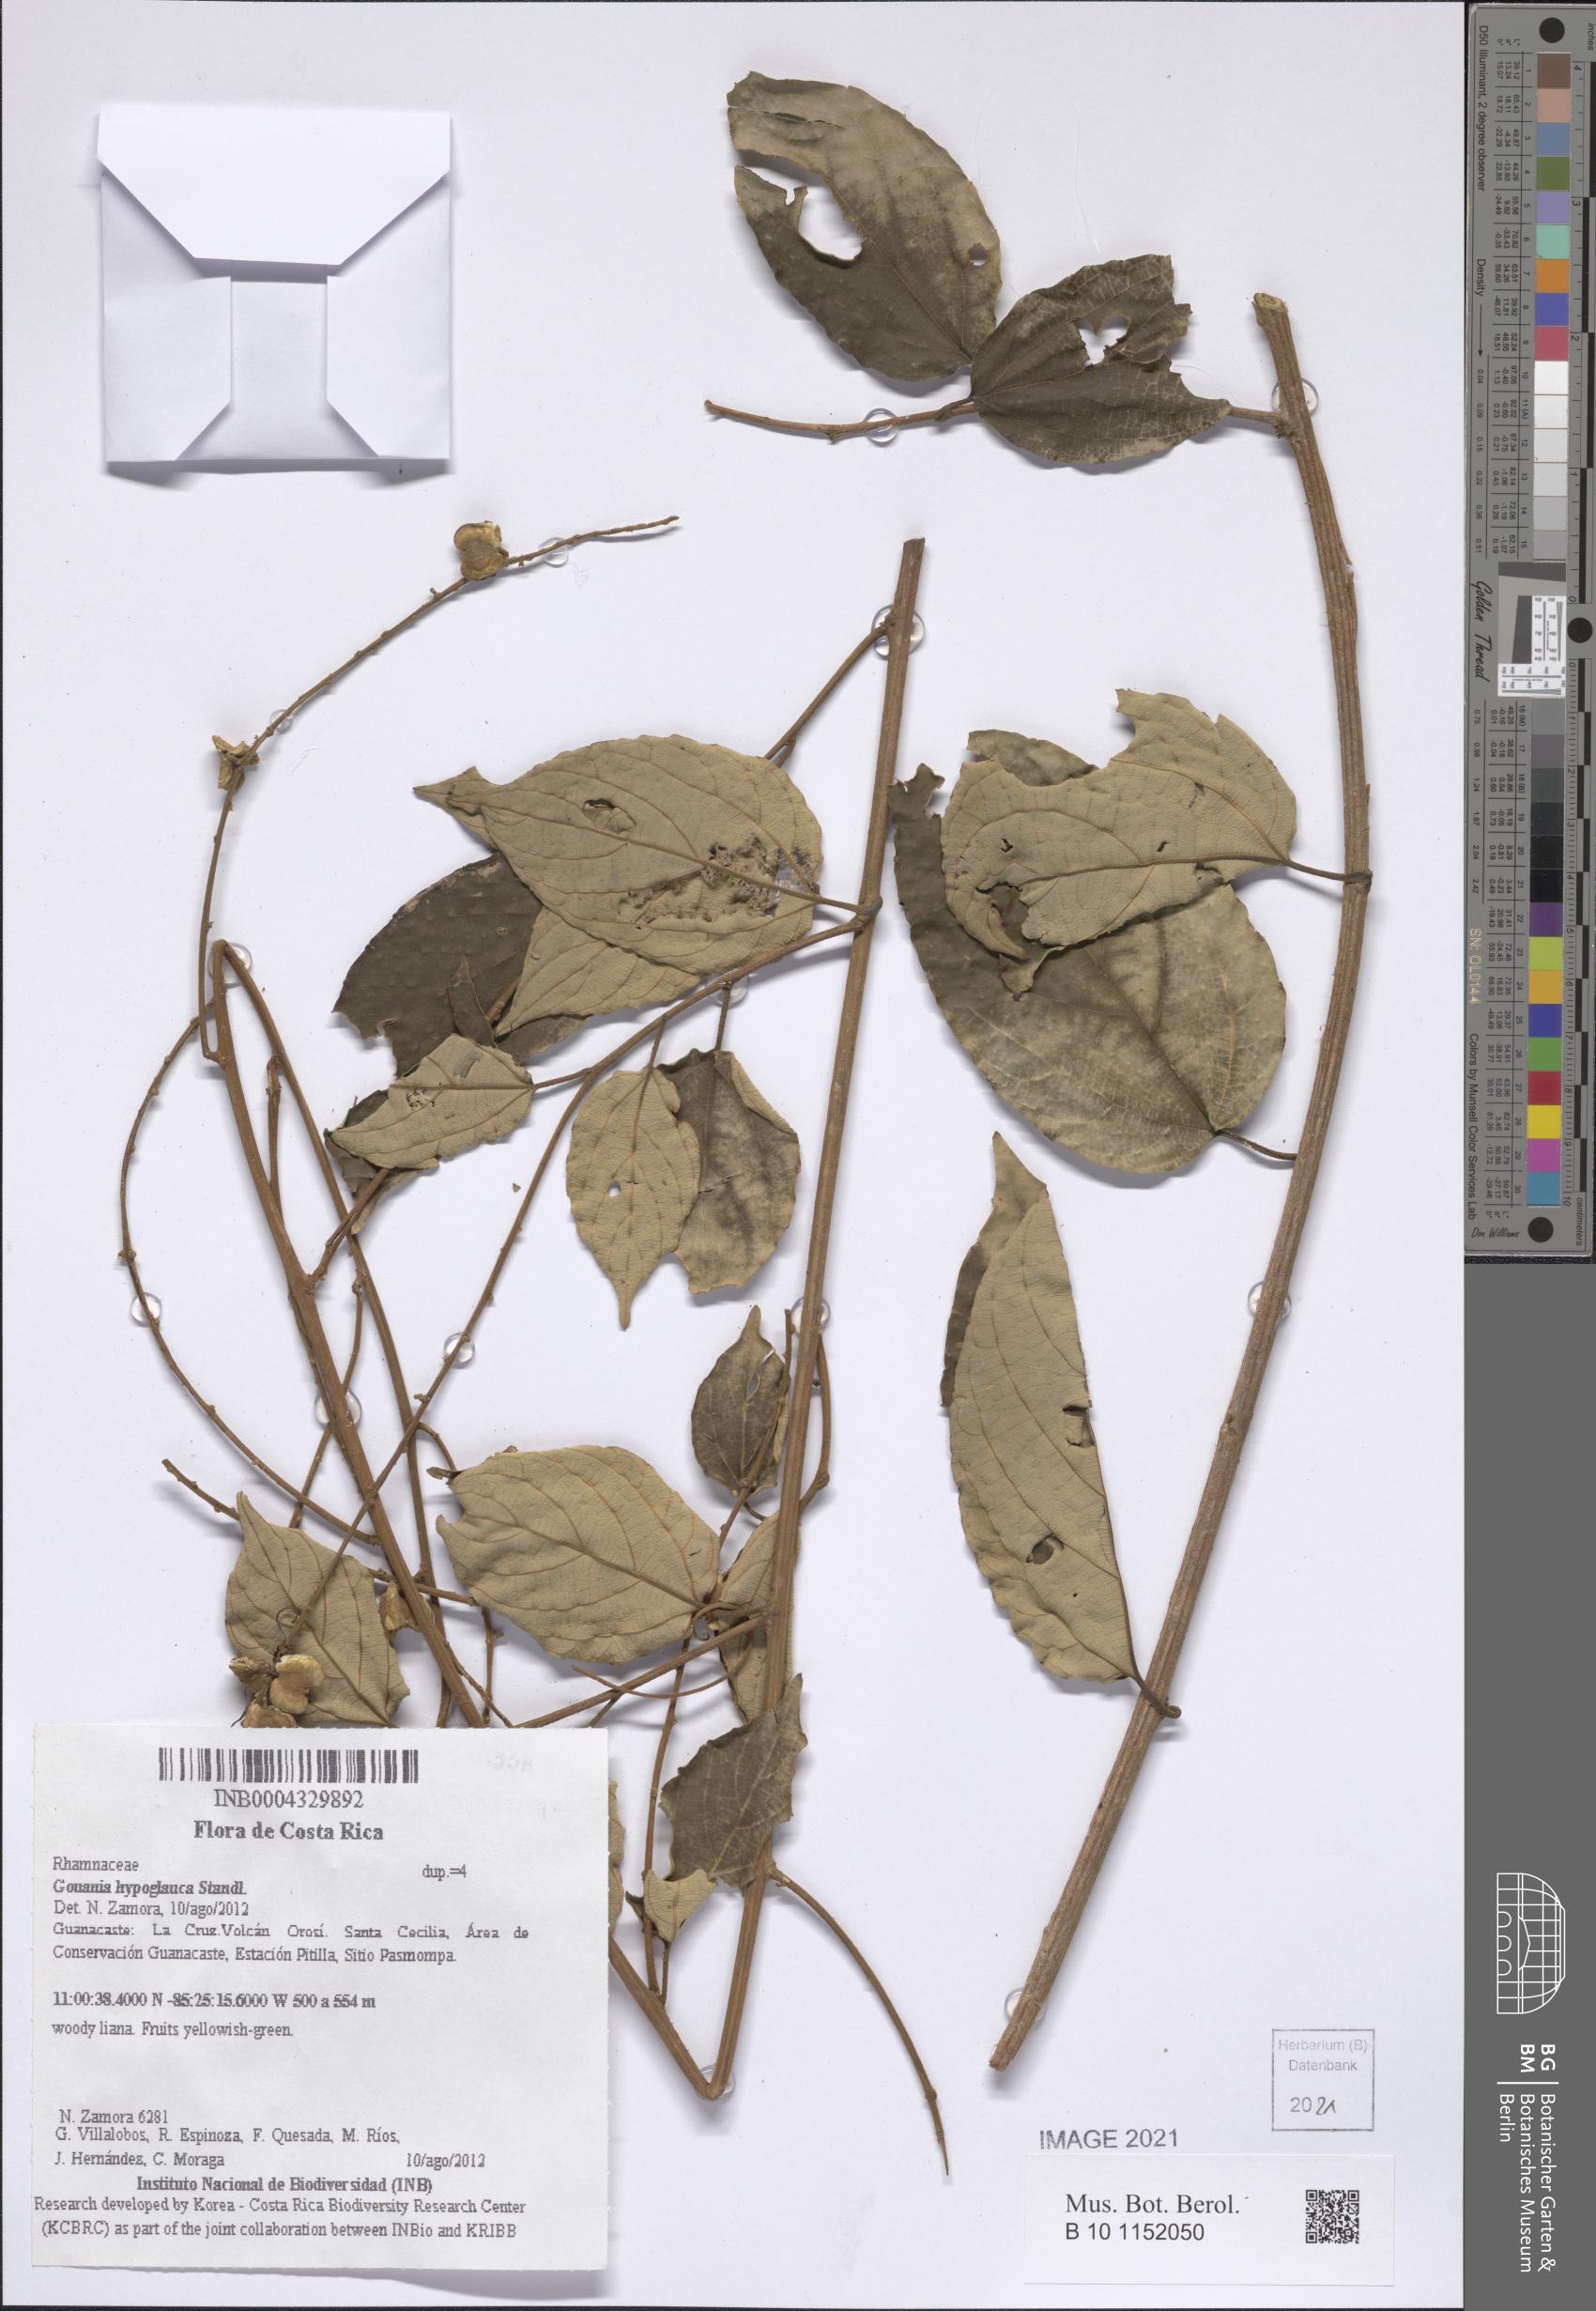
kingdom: Plantae
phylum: Tracheophyta
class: Magnoliopsida
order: Rosales
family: Rhamnaceae
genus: Gouania
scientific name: Gouania hypoglauca
